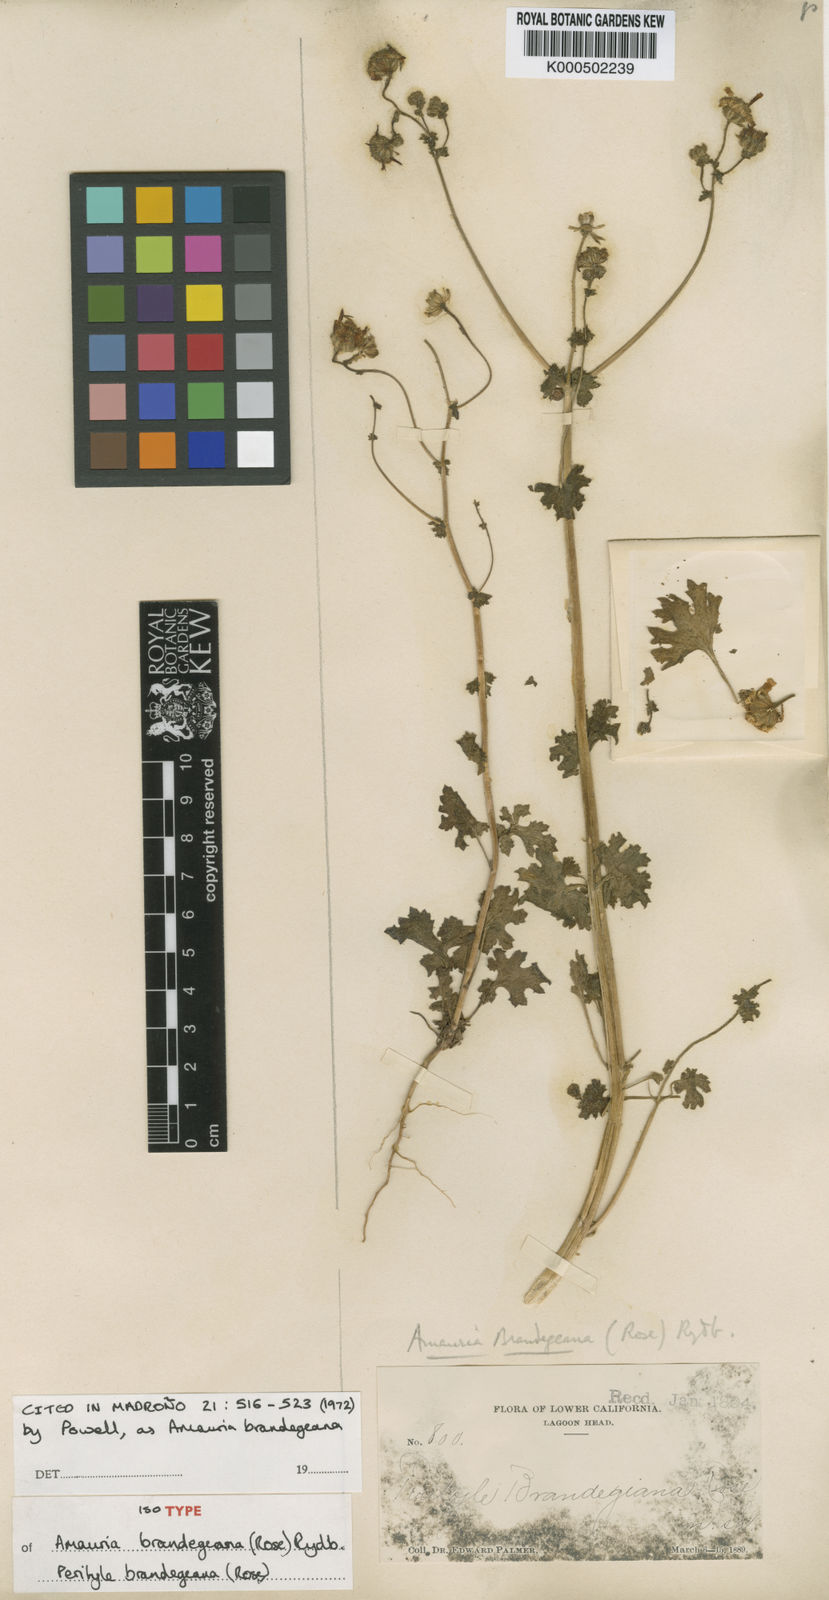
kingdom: Plantae
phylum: Tracheophyta
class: Magnoliopsida
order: Asterales
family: Asteraceae
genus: Perityle
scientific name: Perityle brandegeeana
